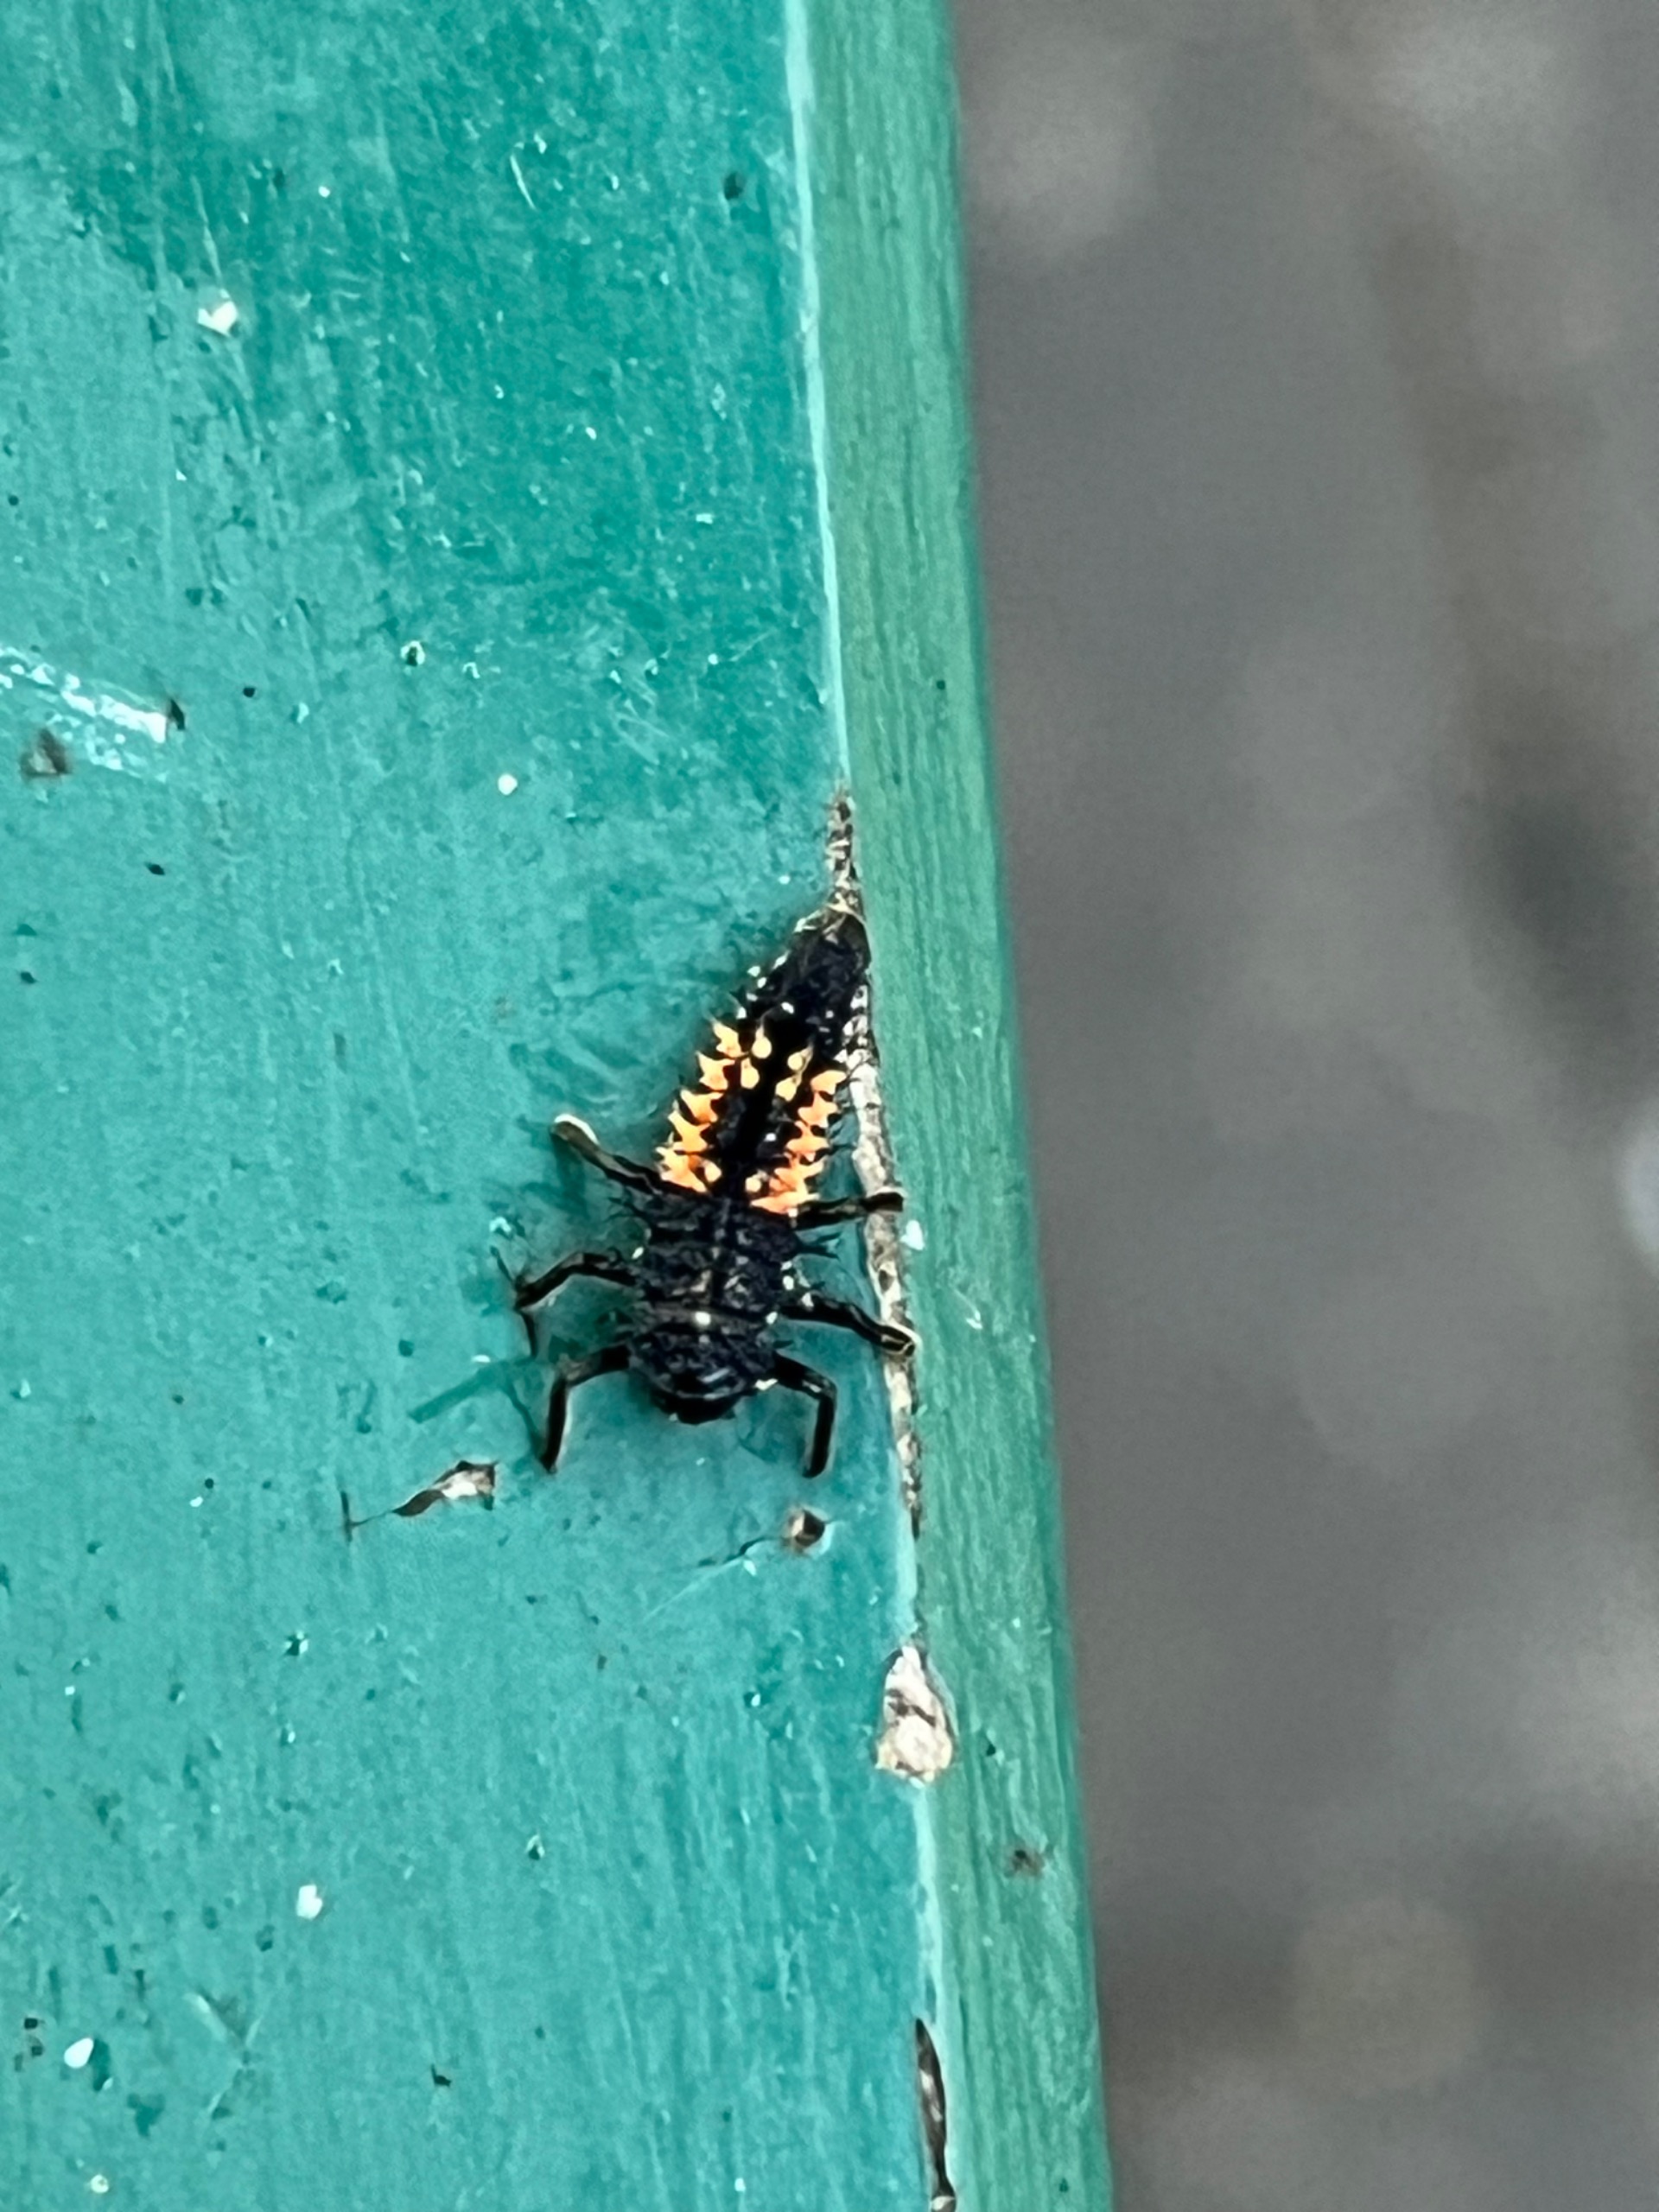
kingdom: Animalia
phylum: Arthropoda
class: Insecta
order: Coleoptera
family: Coccinellidae
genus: Harmonia
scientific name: Harmonia axyridis
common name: Harlekinmariehøne
